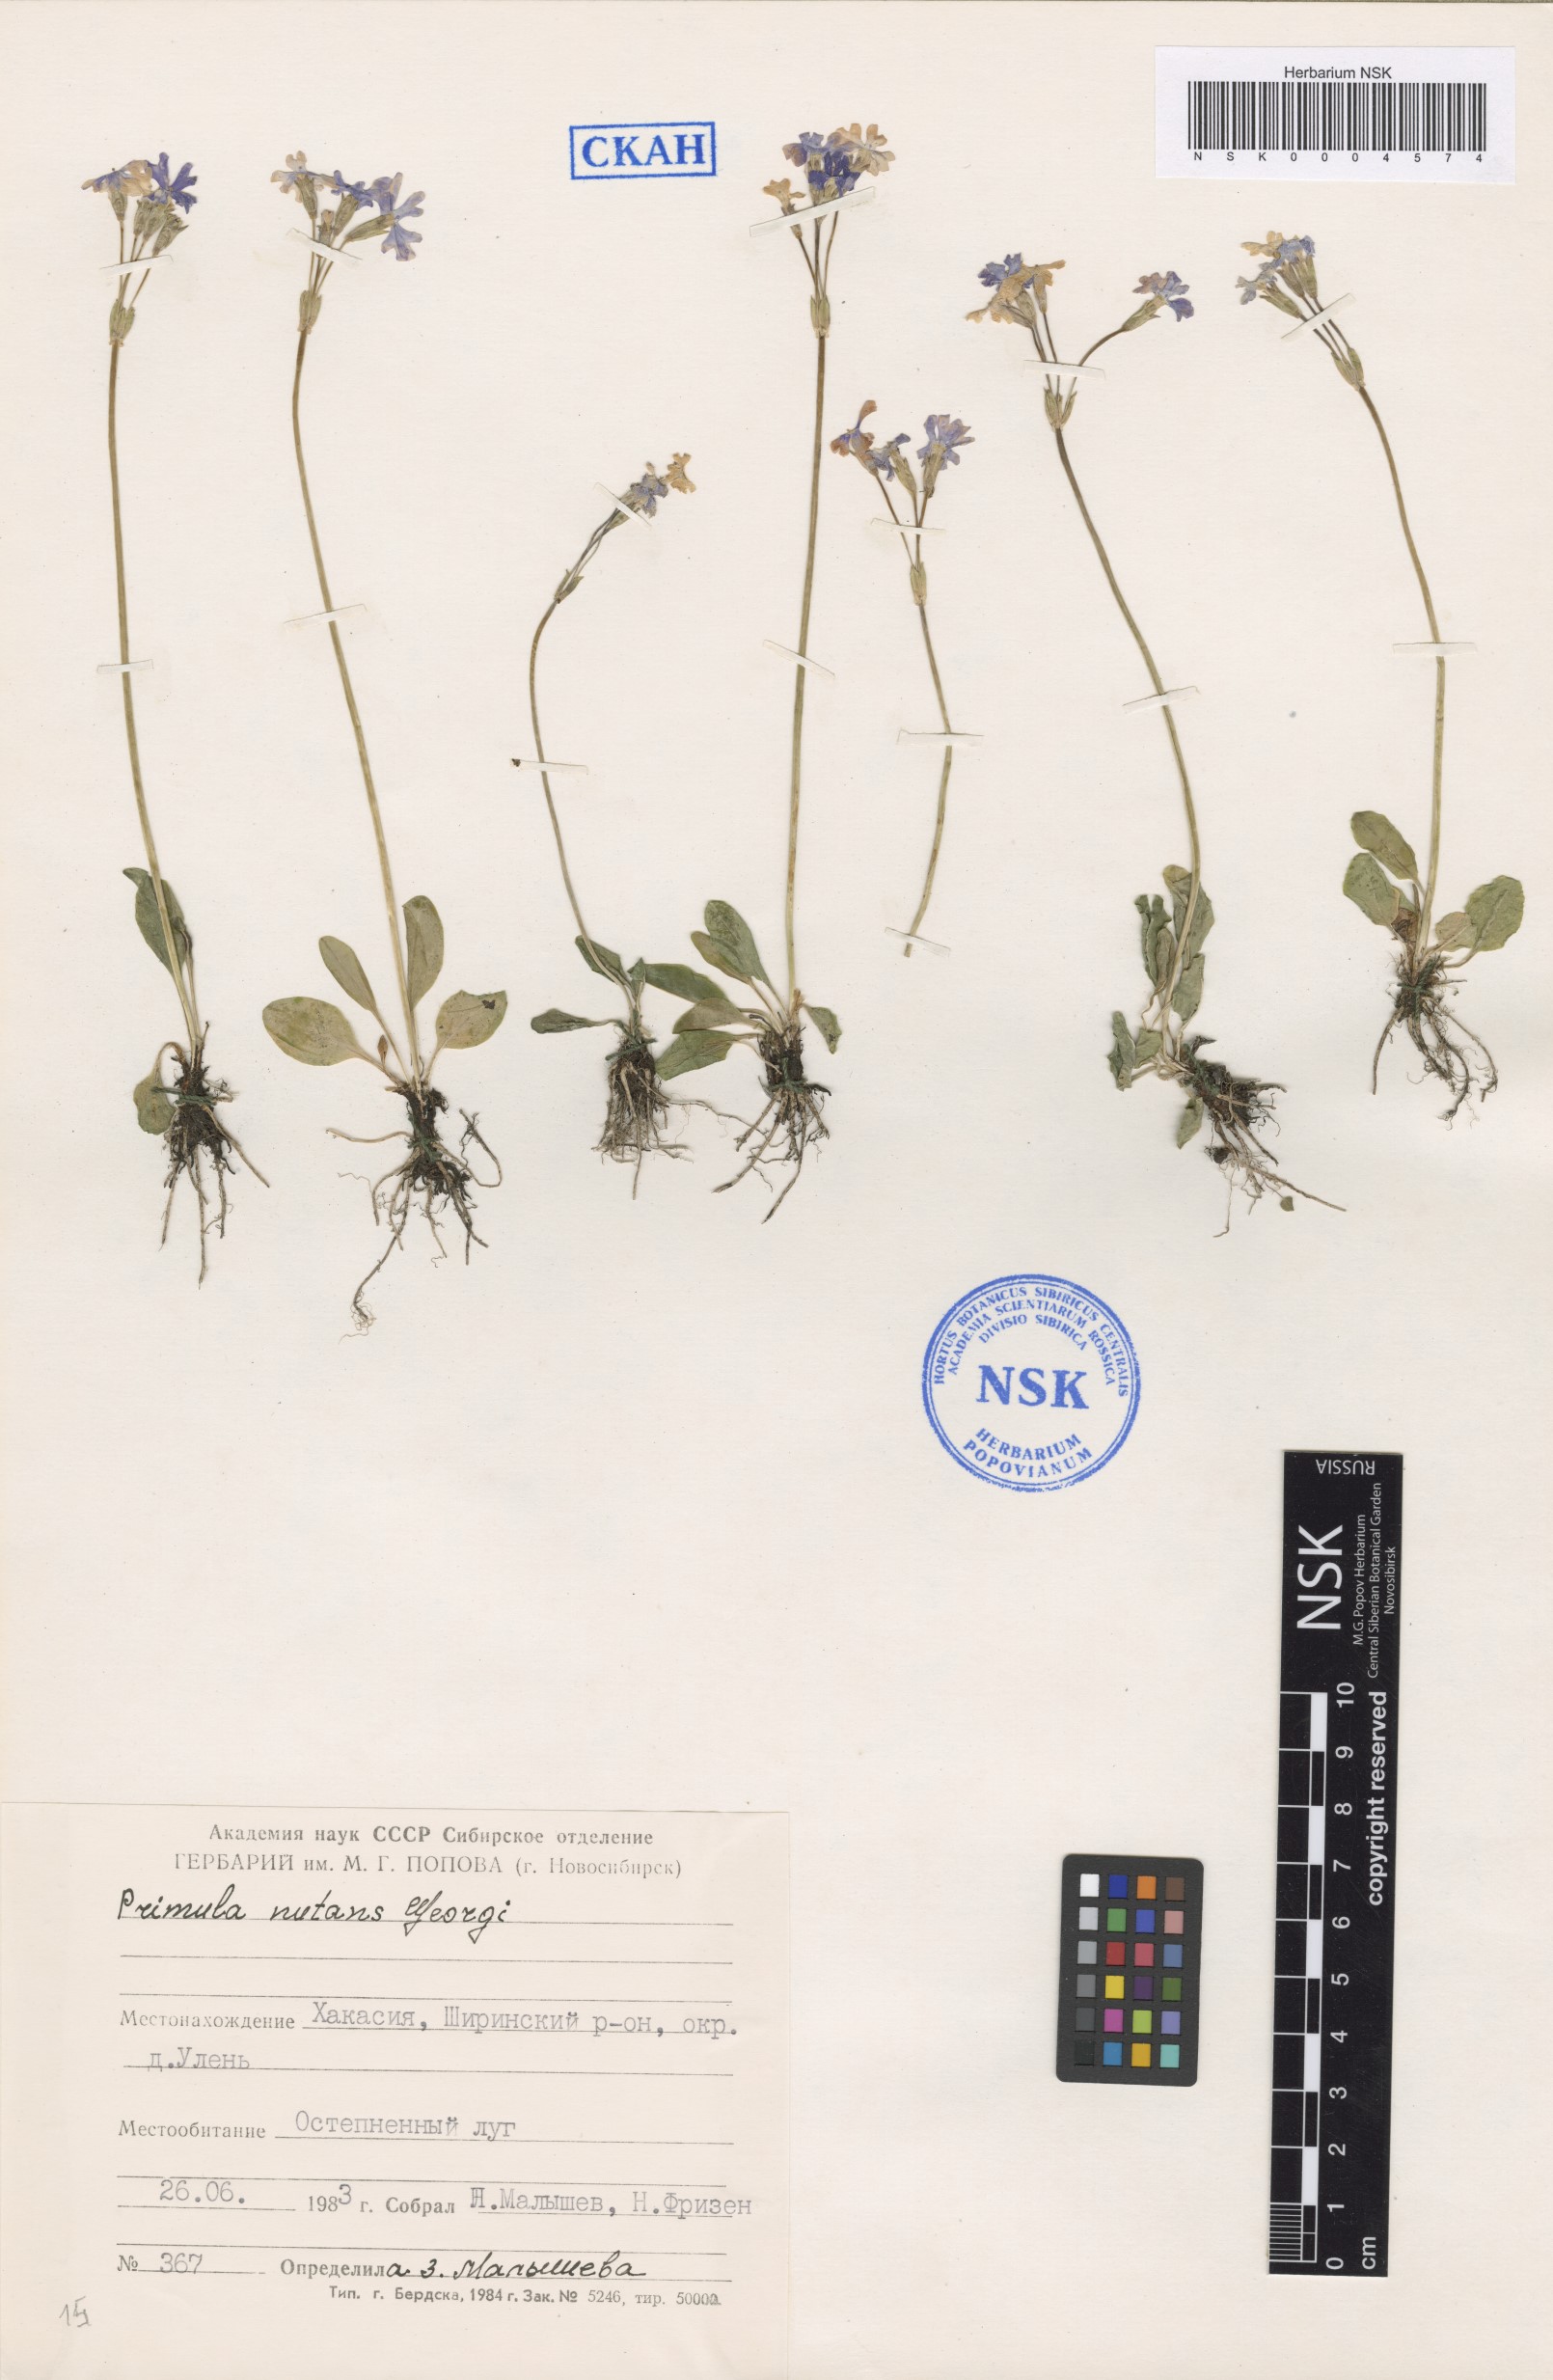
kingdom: Plantae
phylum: Tracheophyta
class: Magnoliopsida
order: Ericales
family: Primulaceae
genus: Primula
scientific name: Primula nutans
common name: Siberian primrose
